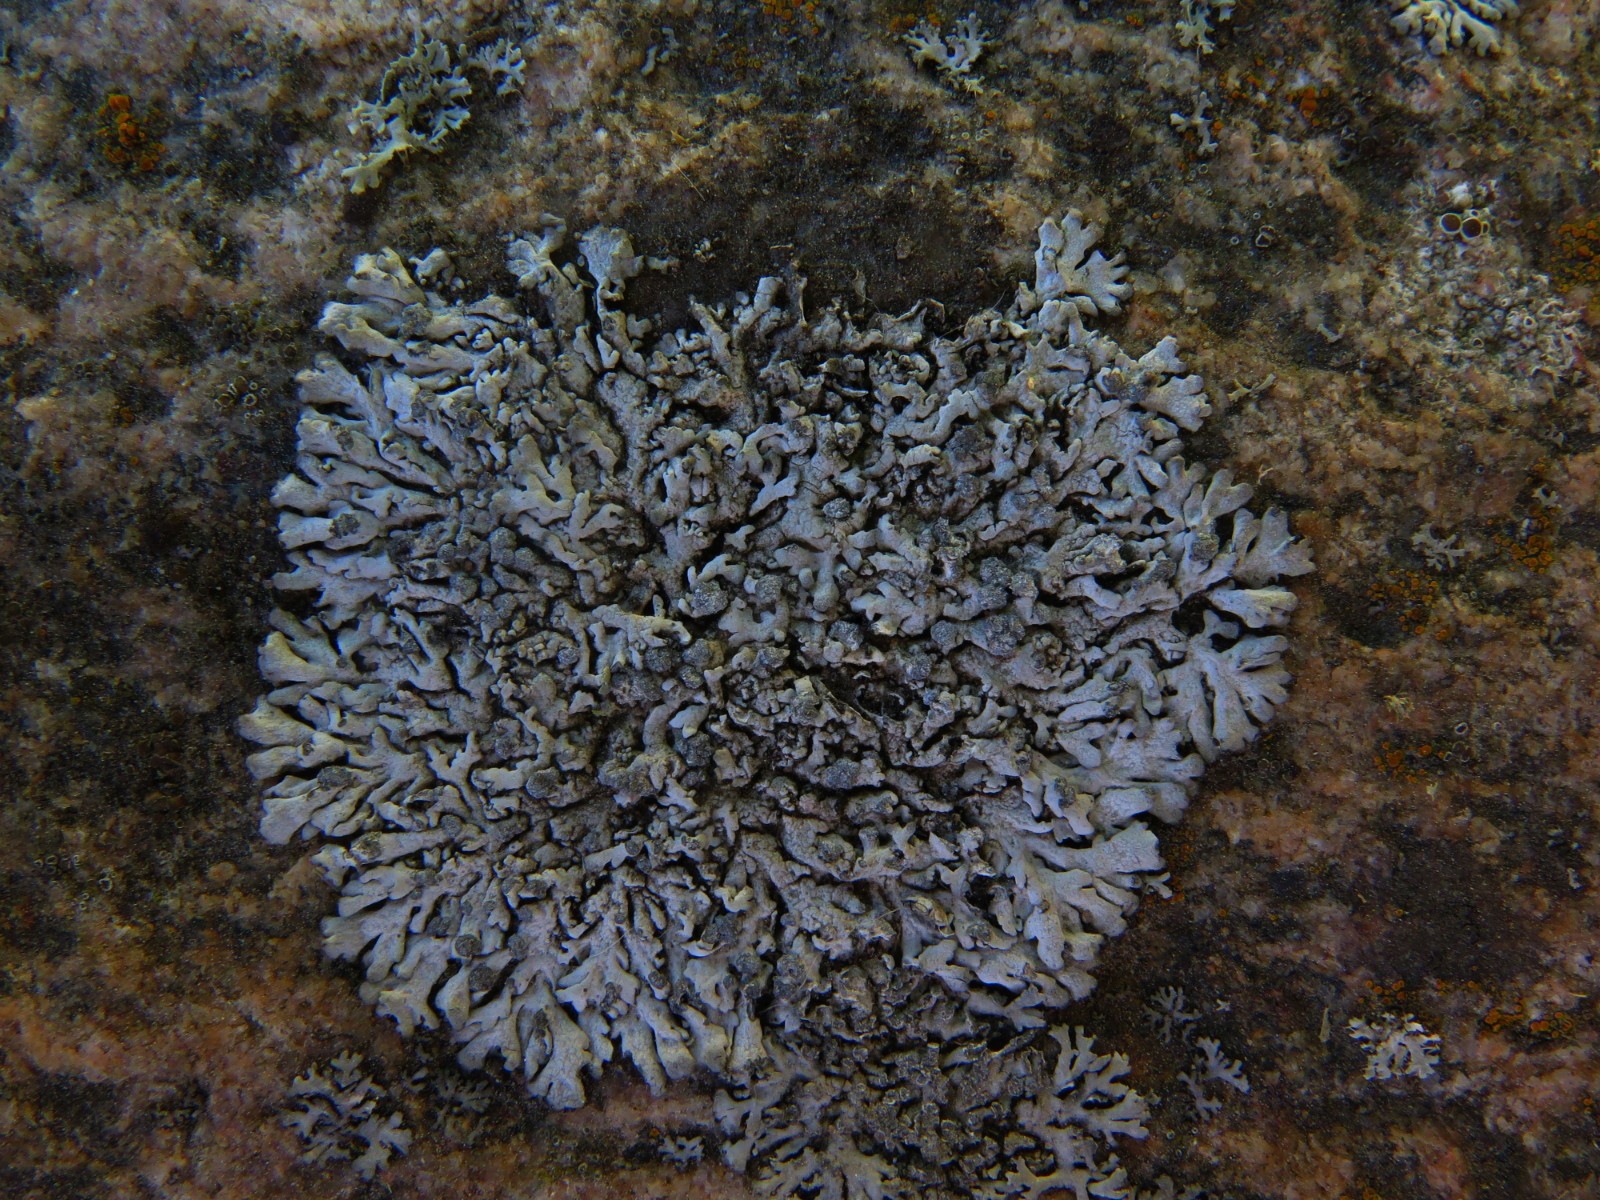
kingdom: Fungi
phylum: Ascomycota
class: Lecanoromycetes
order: Caliciales
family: Physciaceae
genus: Physcia
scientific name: Physcia caesia
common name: blågrå rosetlav
